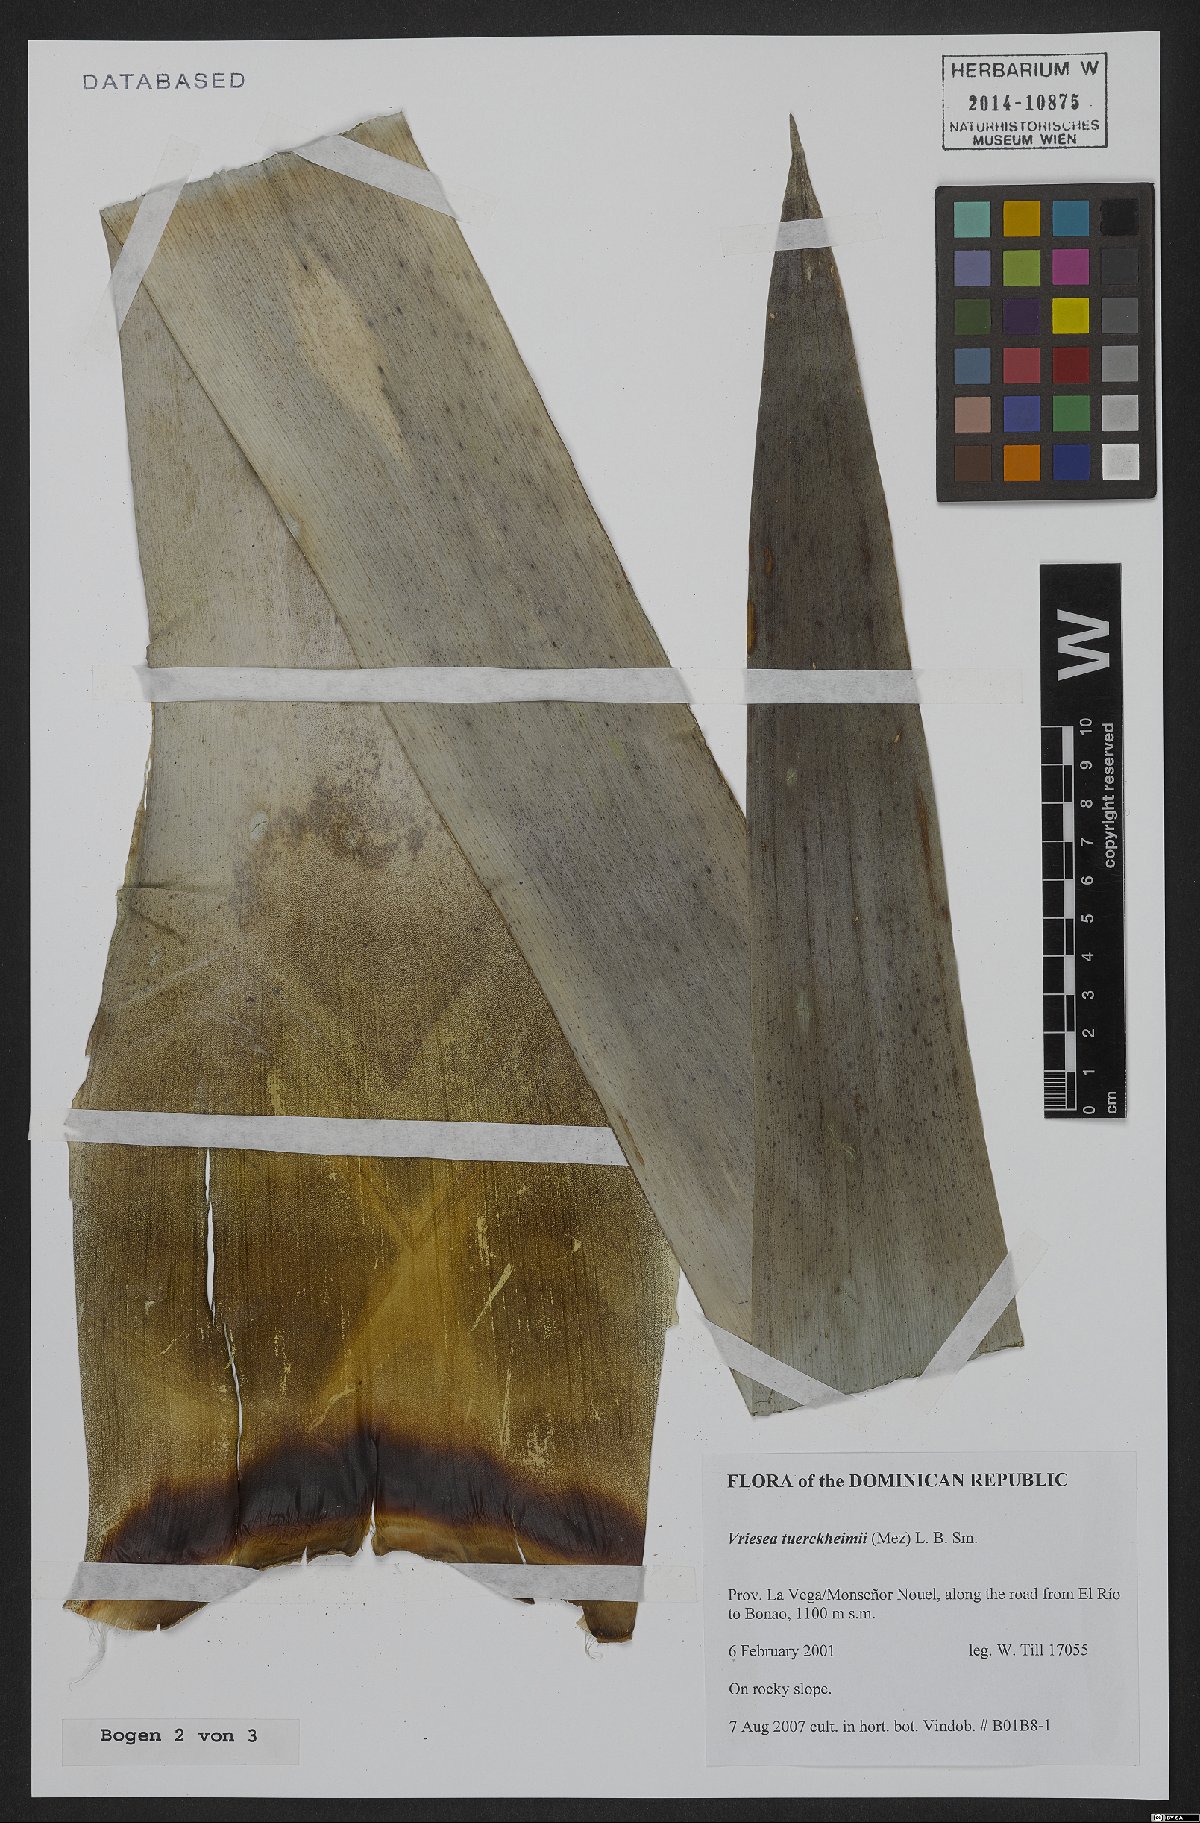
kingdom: Plantae
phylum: Tracheophyta
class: Liliopsida
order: Poales
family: Bromeliaceae
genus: Zizkaea
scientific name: Zizkaea tuerckheimii
